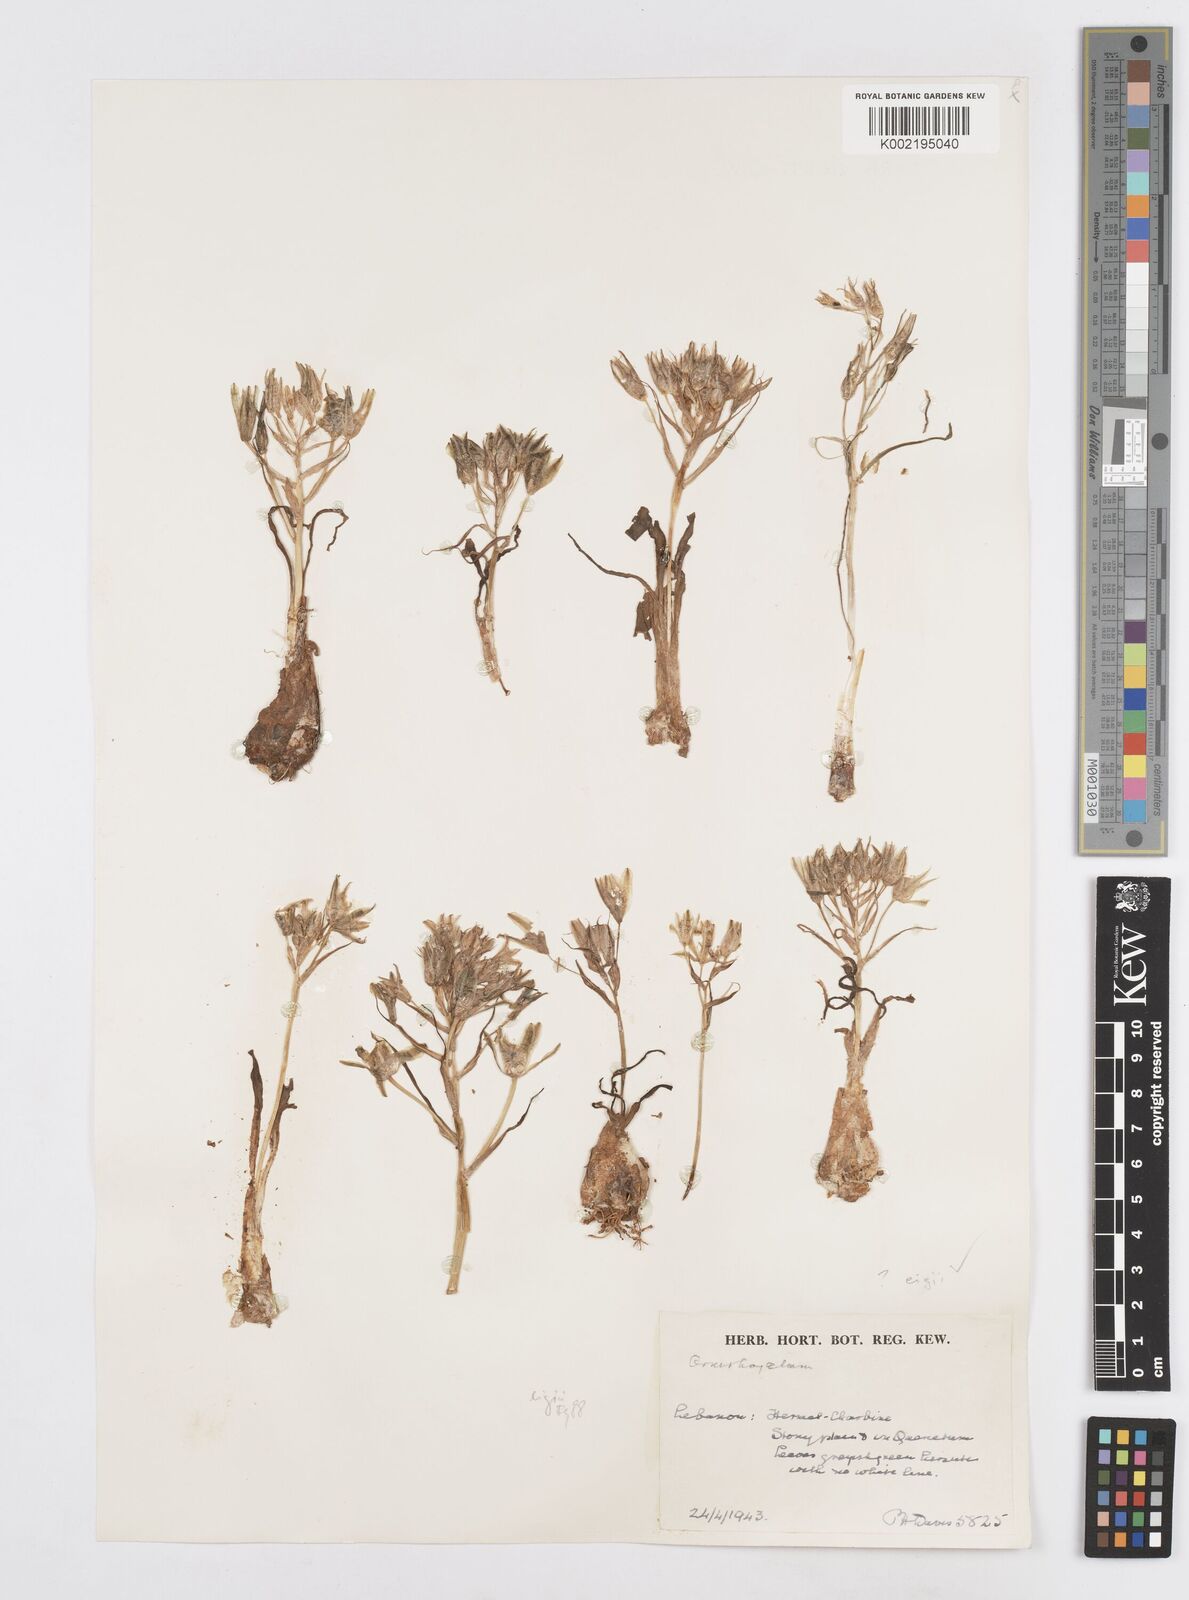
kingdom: Plantae
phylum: Tracheophyta
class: Liliopsida
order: Asparagales
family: Asparagaceae
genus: Ornithogalum
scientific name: Ornithogalum neurostegium
